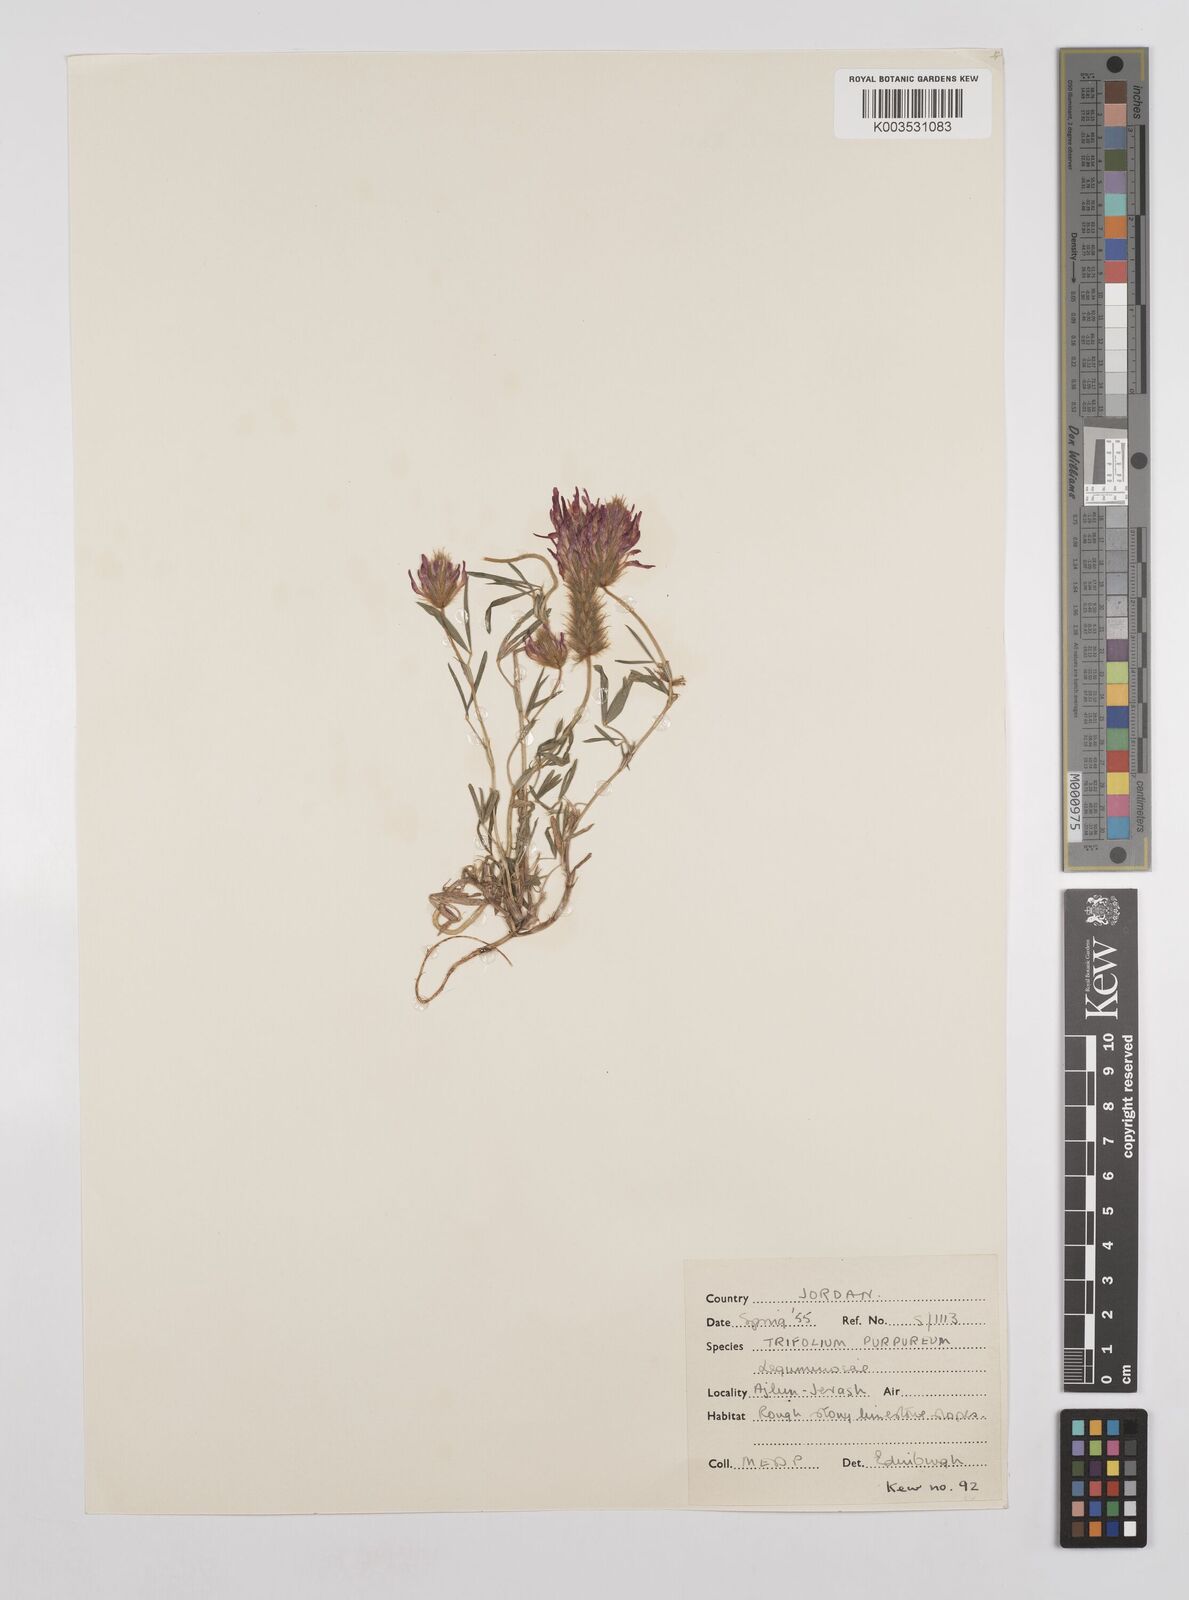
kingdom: Plantae
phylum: Tracheophyta
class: Magnoliopsida
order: Fabales
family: Fabaceae
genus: Trifolium
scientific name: Trifolium purpureum
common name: Purple clover
